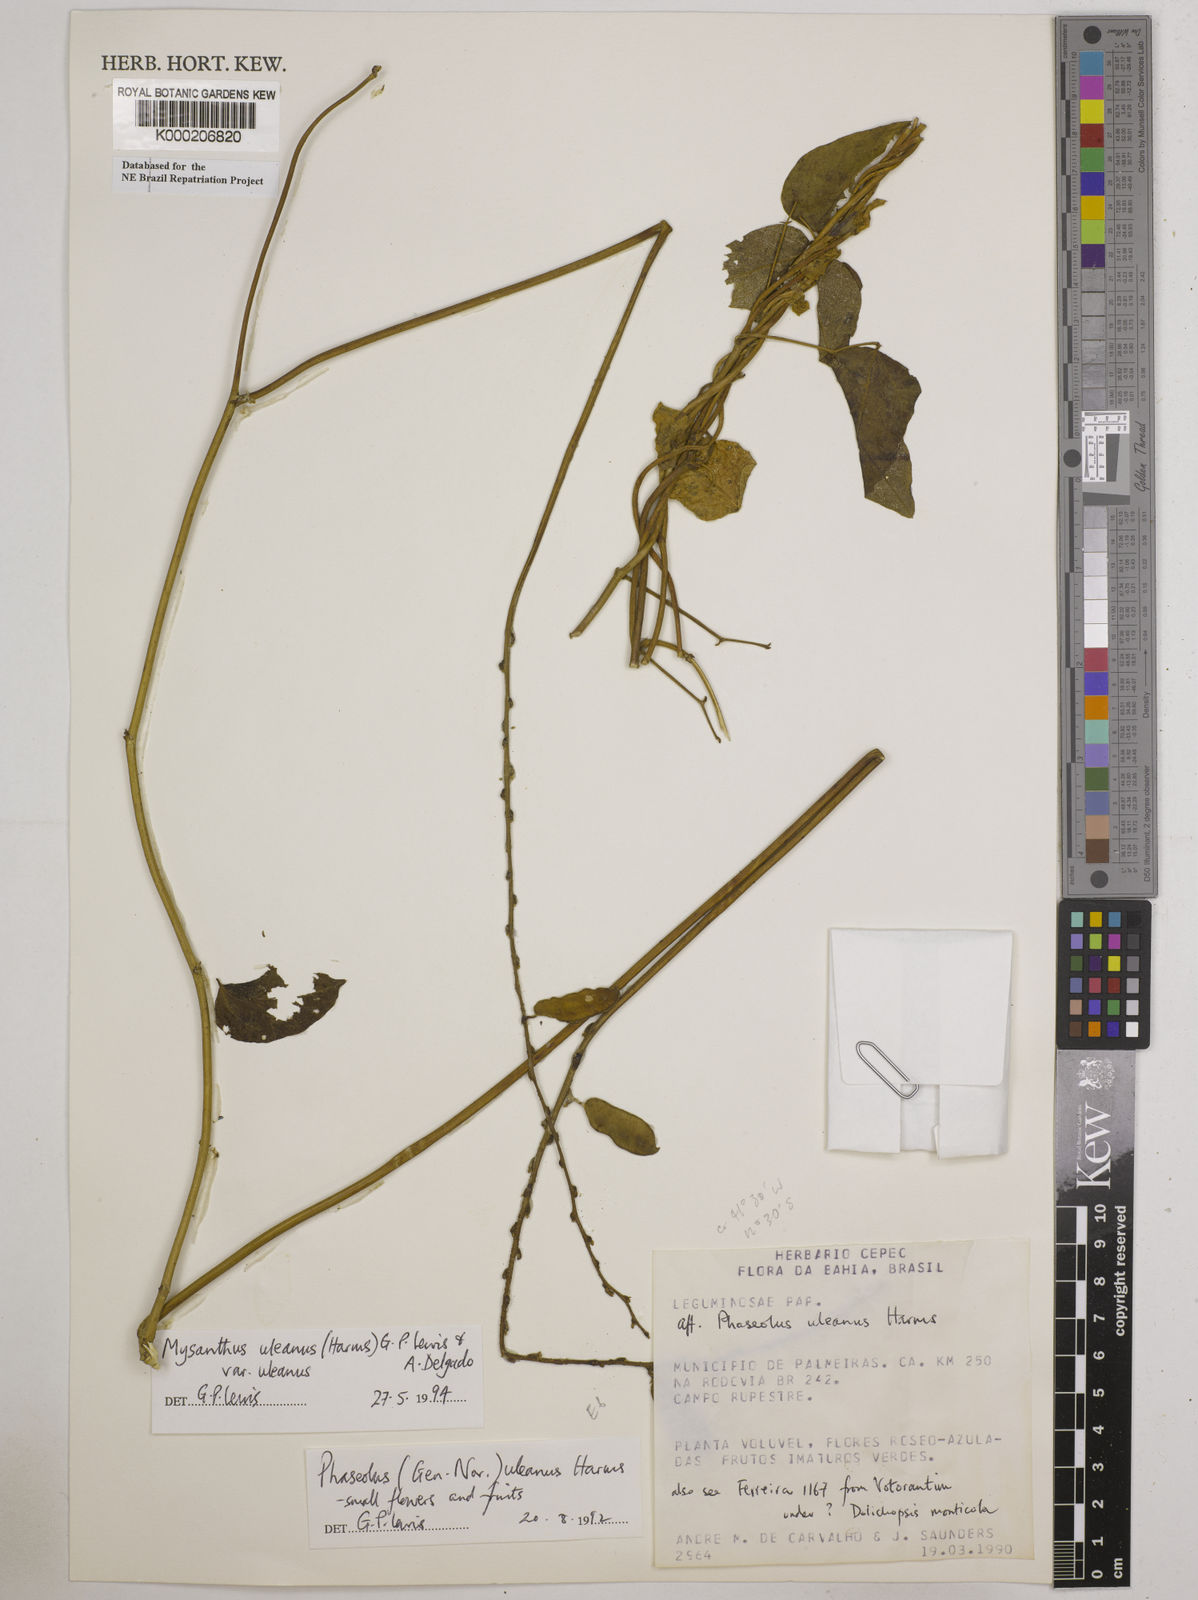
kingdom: Plantae
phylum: Tracheophyta
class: Magnoliopsida
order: Fabales
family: Fabaceae
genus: Mysanthus
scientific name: Mysanthus uleanus
